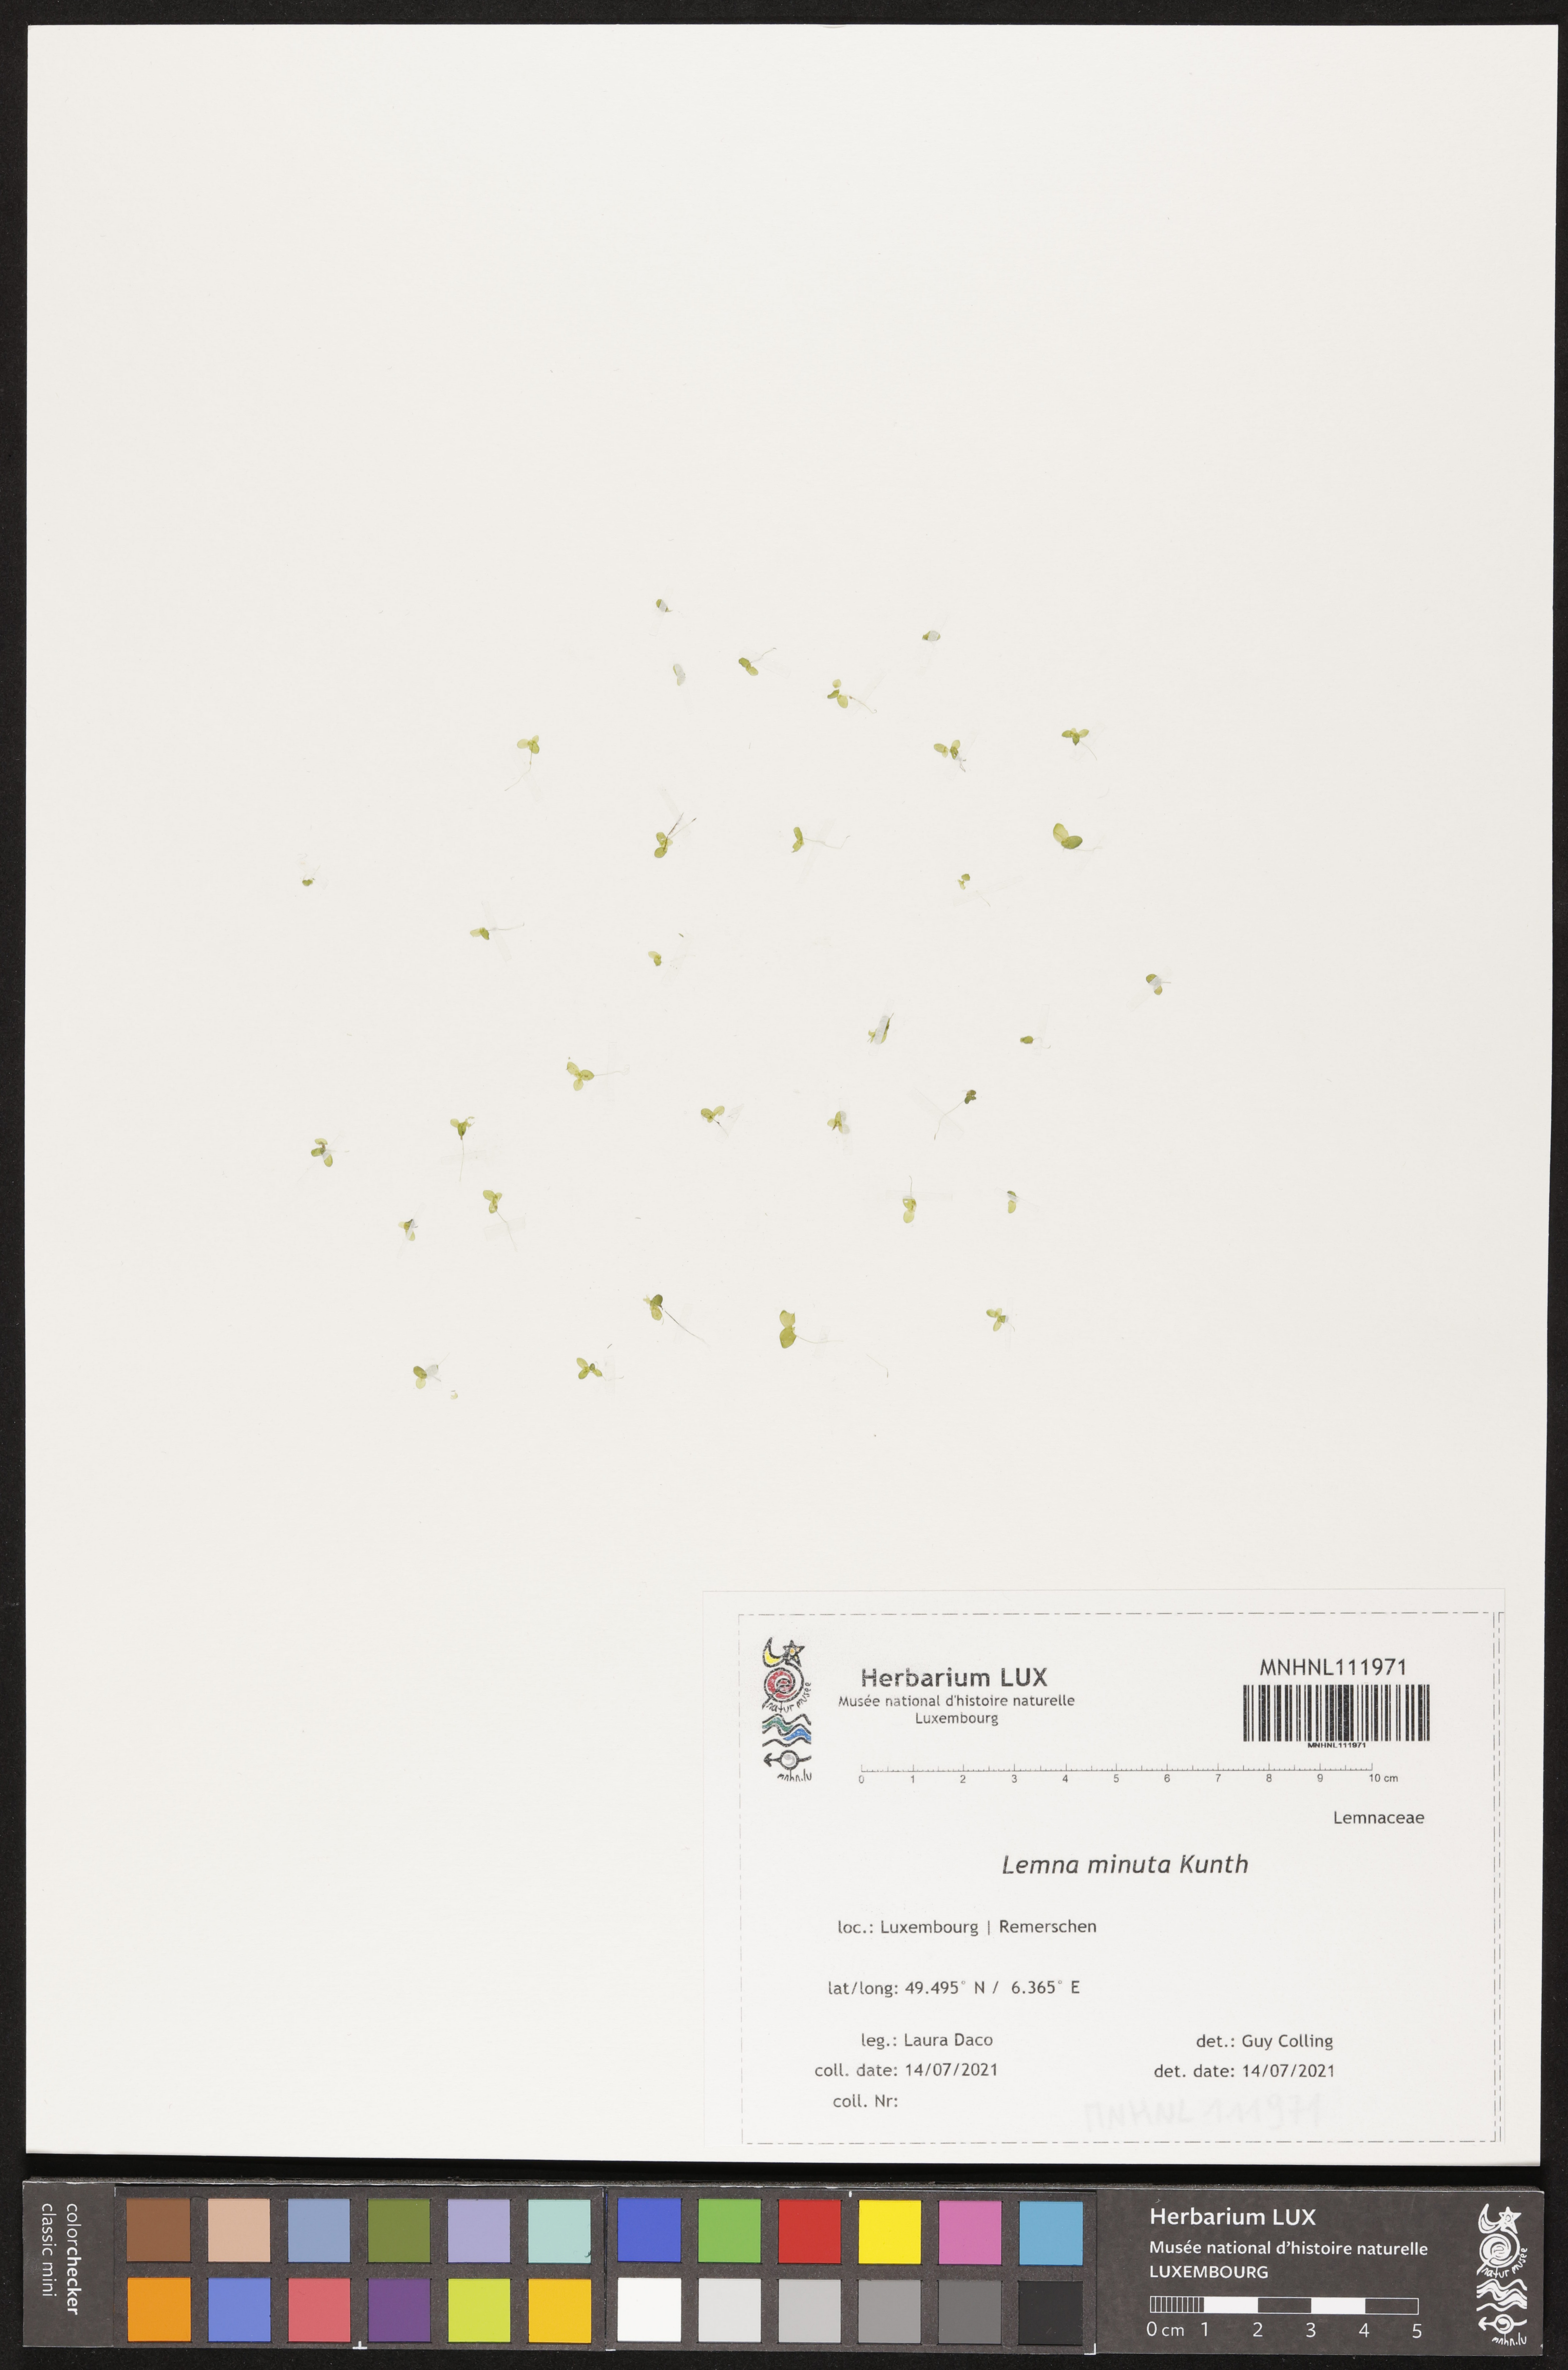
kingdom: Plantae
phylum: Tracheophyta
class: Liliopsida
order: Alismatales
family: Araceae
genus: Lemna
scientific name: Lemna minuta
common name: Least duckweed
